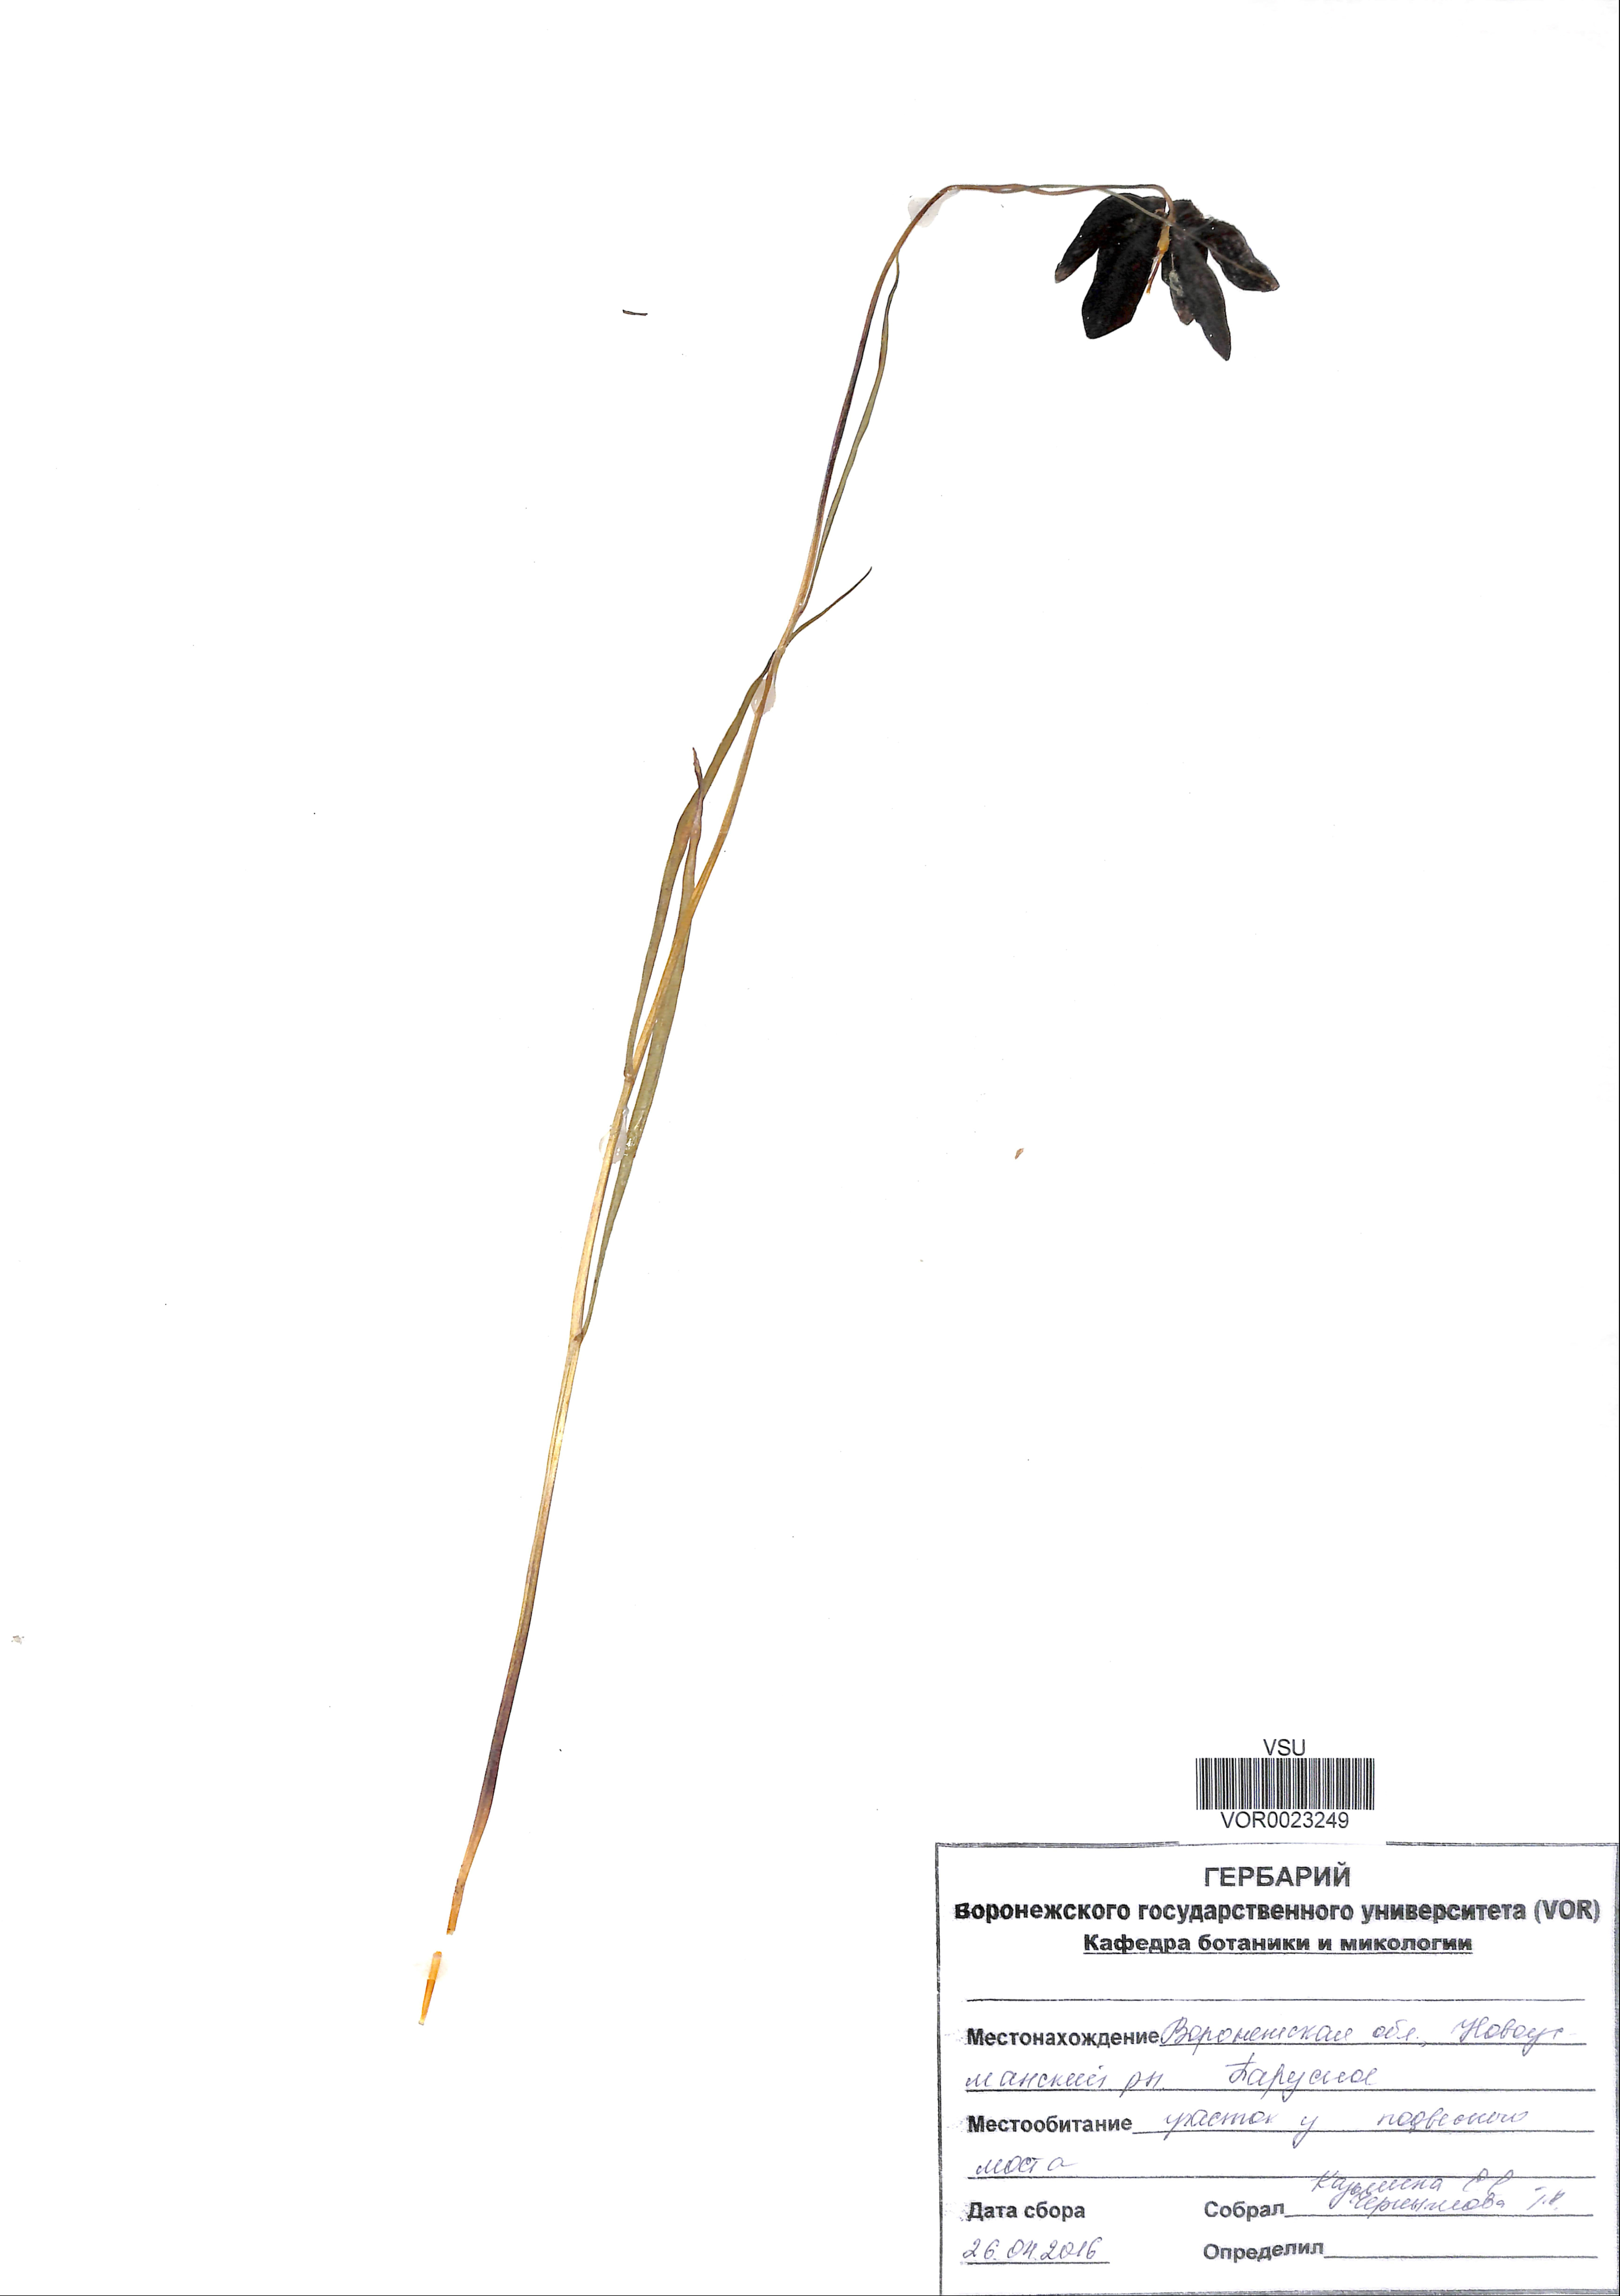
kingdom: Plantae
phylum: Tracheophyta
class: Liliopsida
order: Liliales
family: Liliaceae
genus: Fritillaria
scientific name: Fritillaria meleagroides
